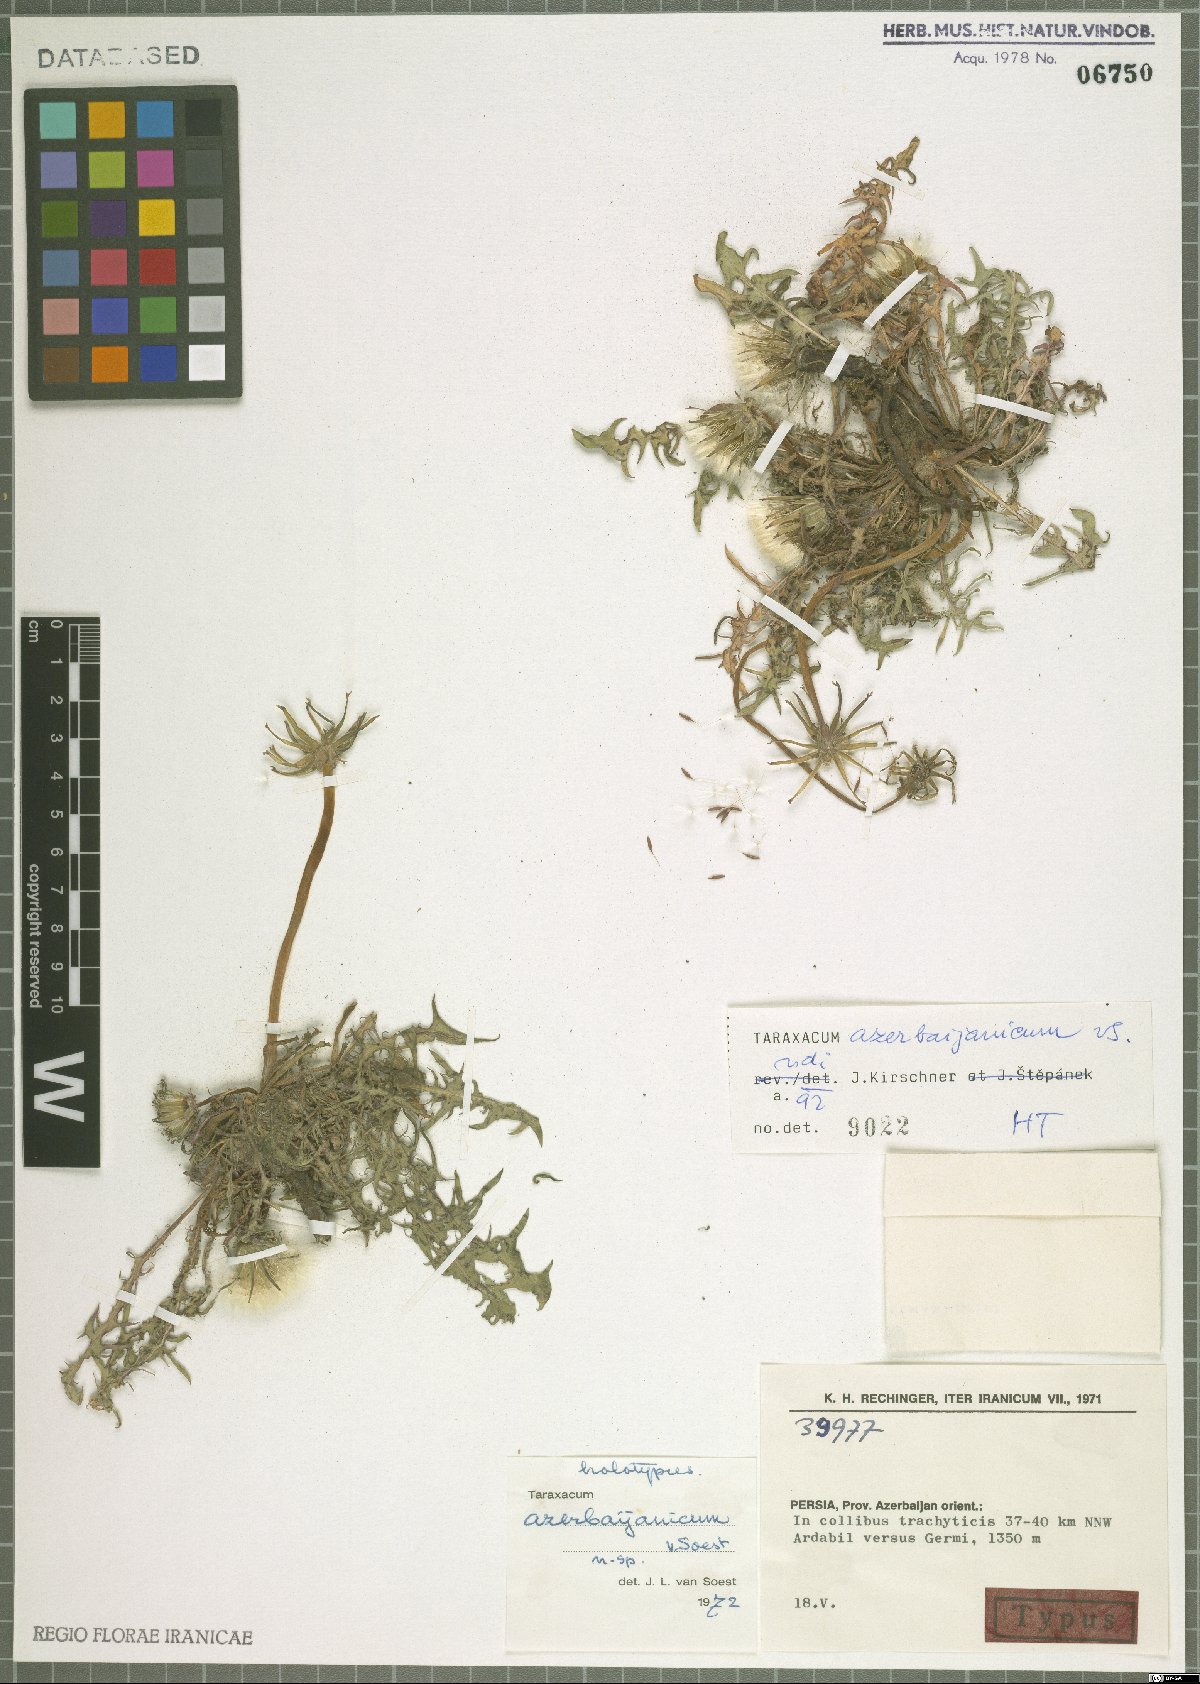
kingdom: Plantae
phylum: Tracheophyta
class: Magnoliopsida
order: Asterales
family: Asteraceae
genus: Taraxacum
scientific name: Taraxacum azerbaijanicum
